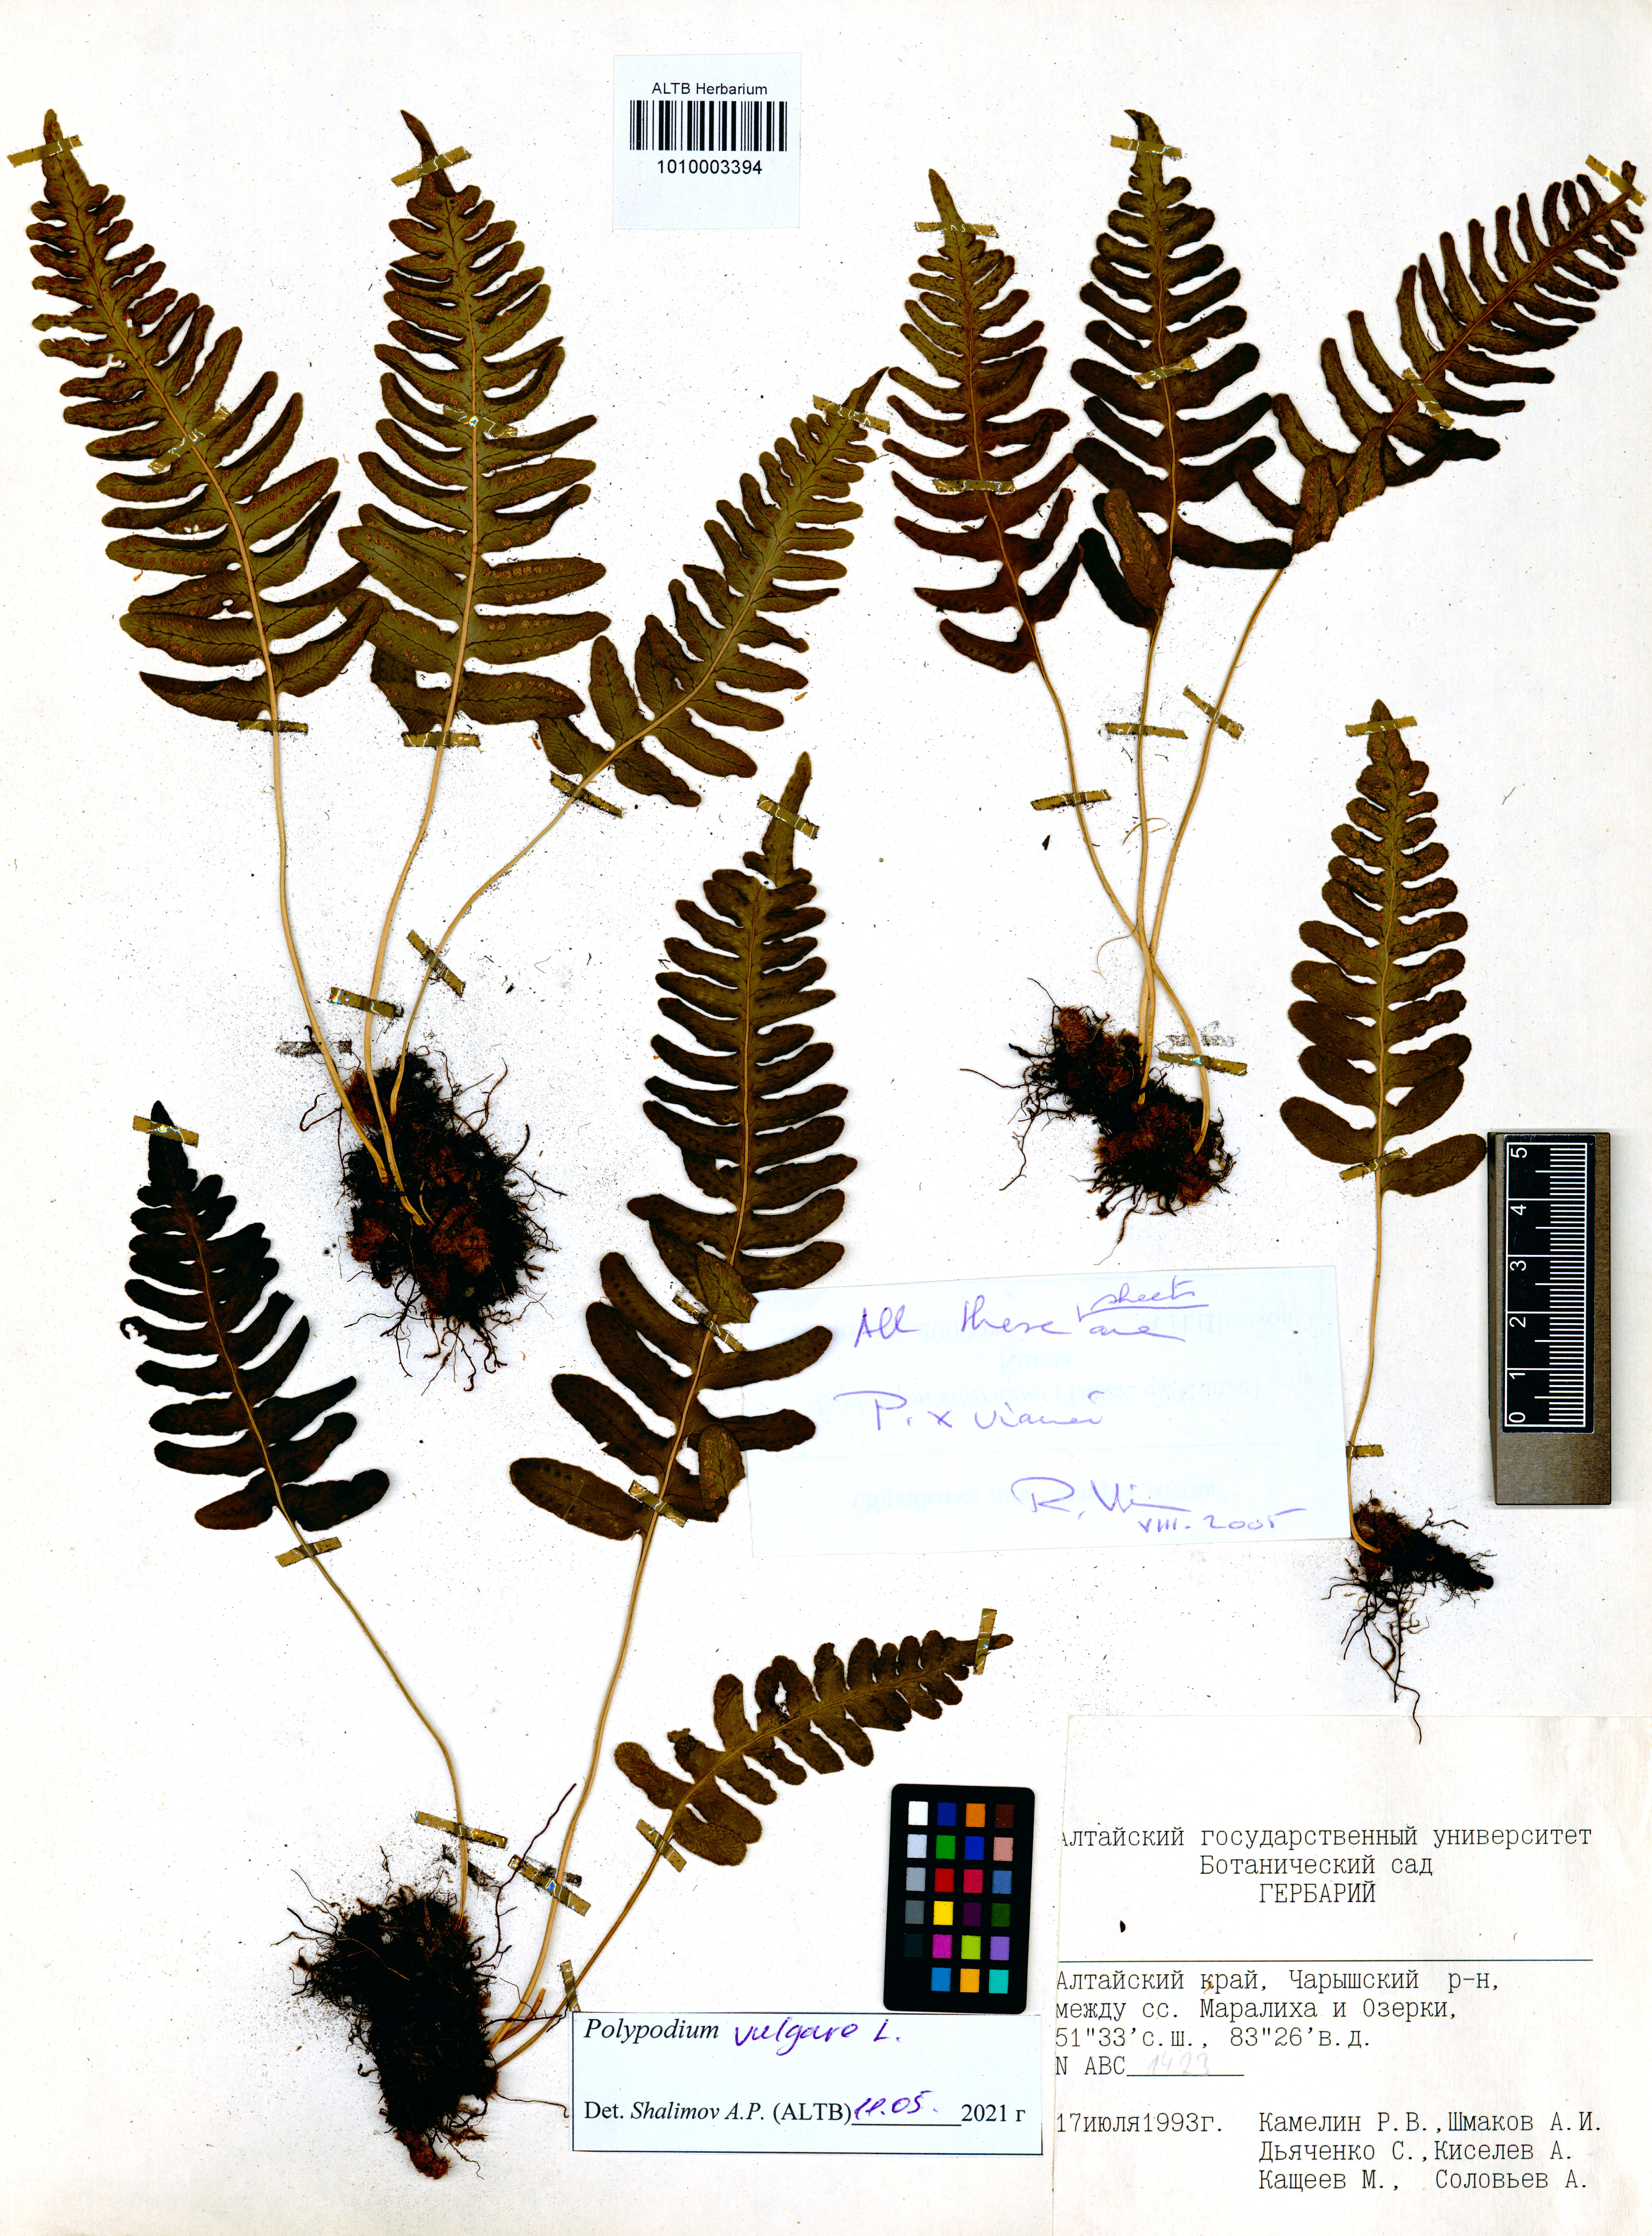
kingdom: Plantae
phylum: Tracheophyta
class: Polypodiopsida
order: Polypodiales
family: Polypodiaceae
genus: Polypodium
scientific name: Polypodium vulgare
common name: Common polypody
